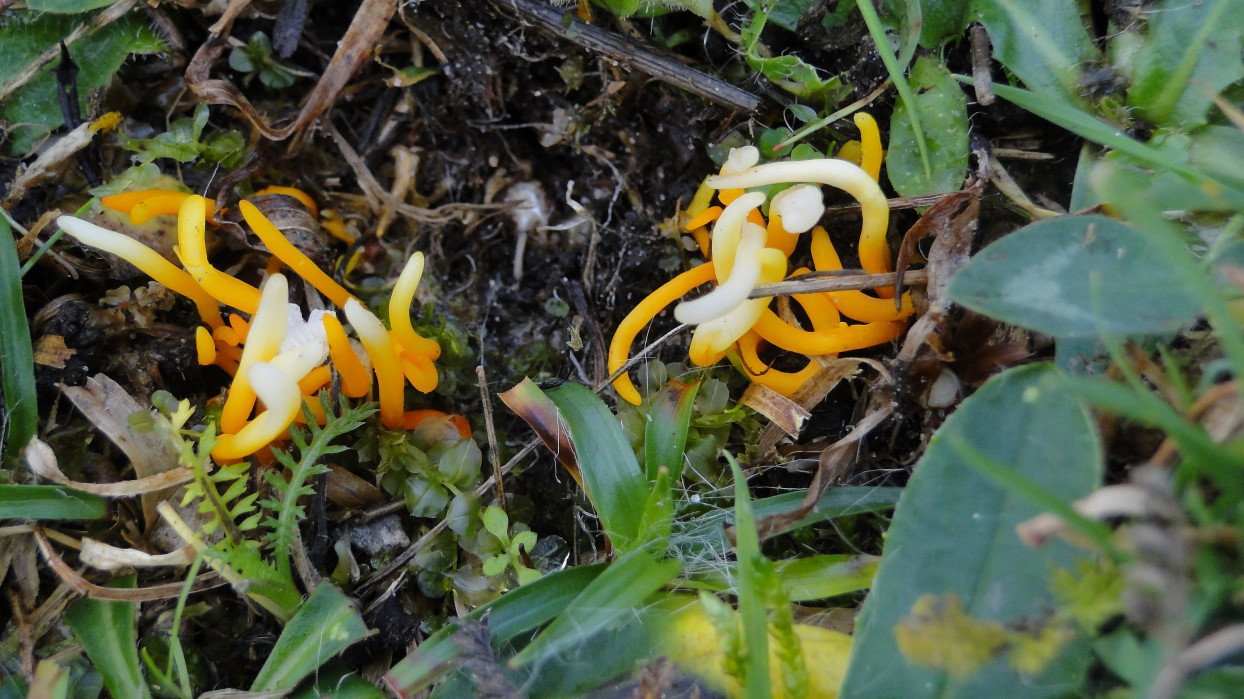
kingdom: Fungi
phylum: Basidiomycota
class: Agaricomycetes
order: Agaricales
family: Clavariaceae
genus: Clavulinopsis
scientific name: Clavulinopsis luteoalba
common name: abrikos-køllesvamp
